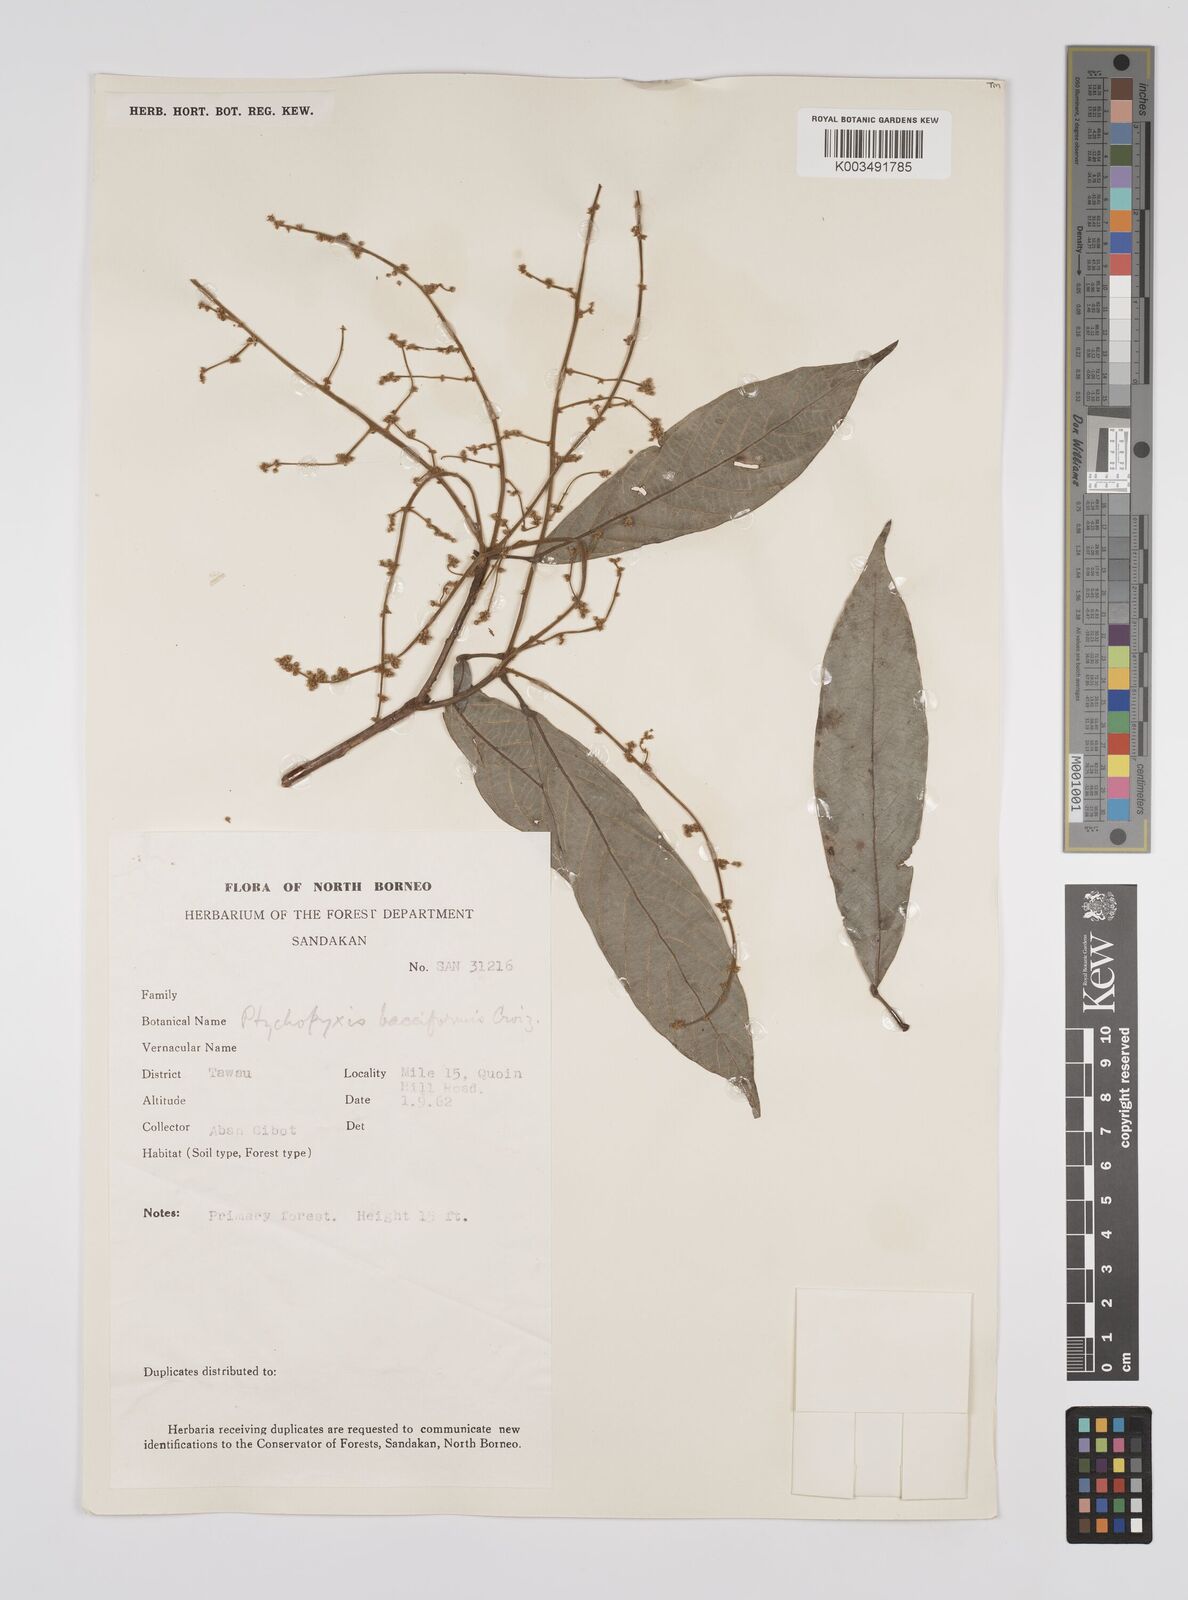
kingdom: Plantae
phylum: Tracheophyta
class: Magnoliopsida
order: Malpighiales
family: Euphorbiaceae
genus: Ptychopyxis
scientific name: Ptychopyxis bacciformis
